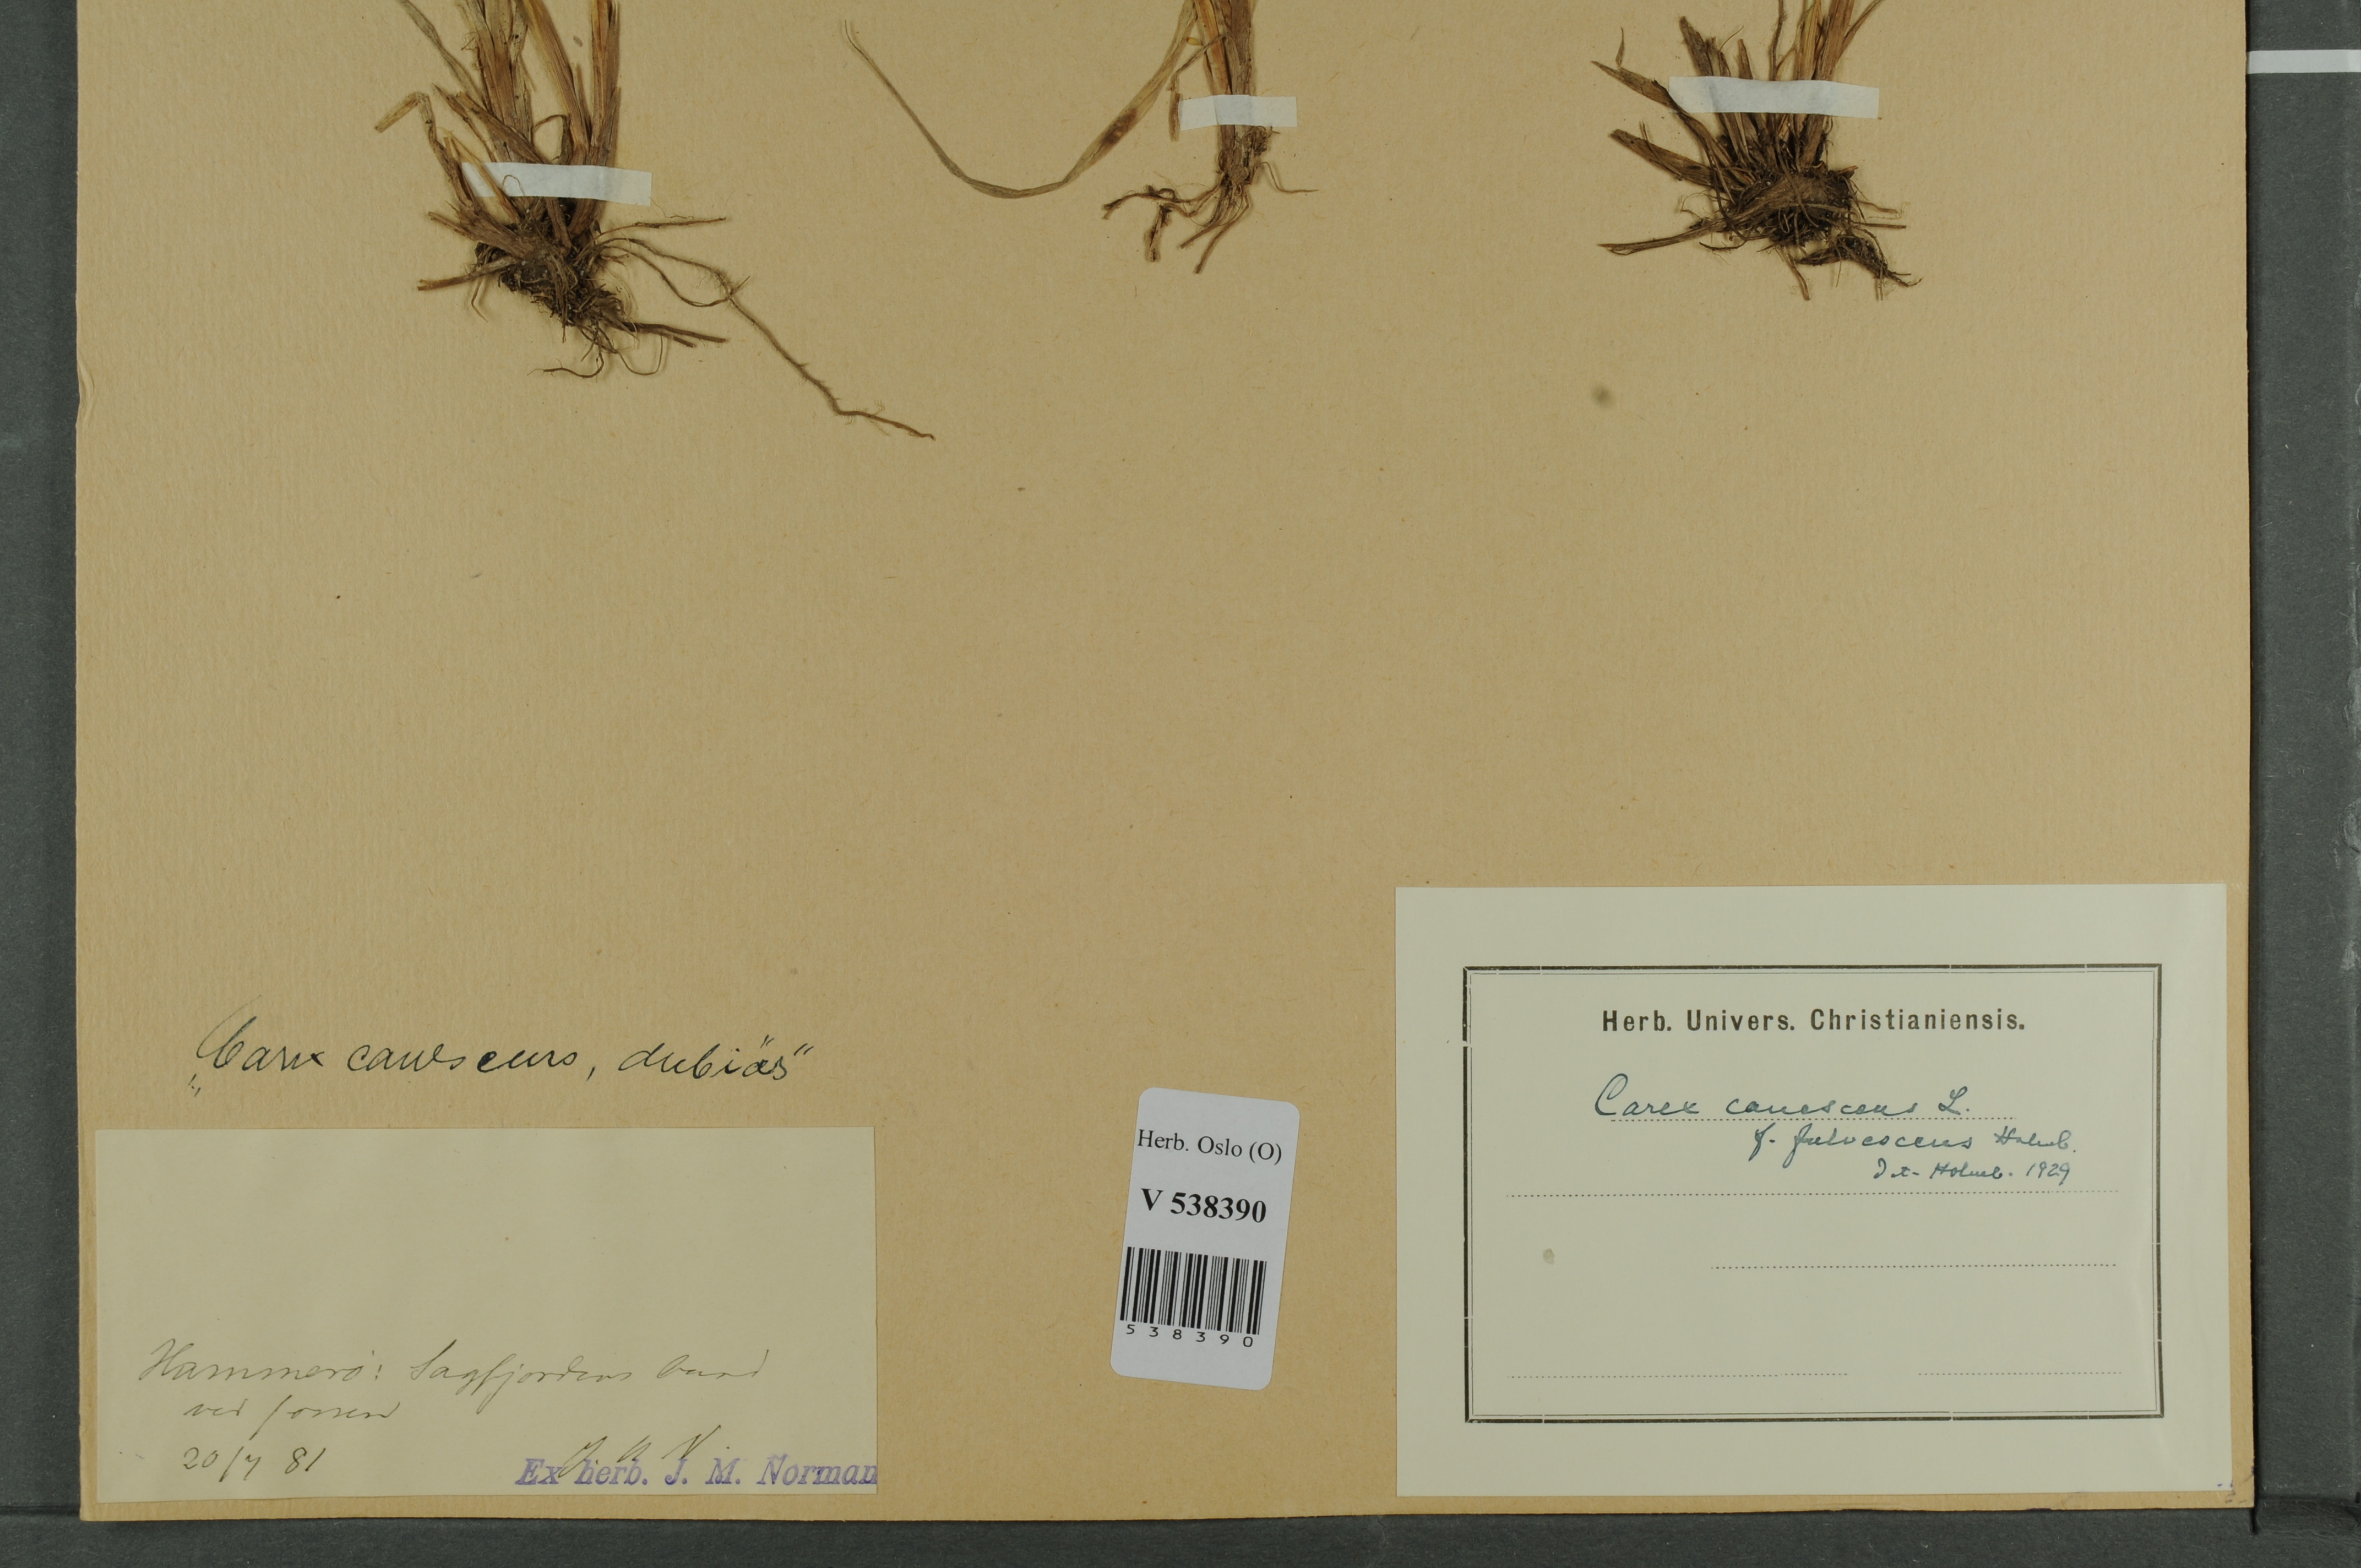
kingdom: Plantae
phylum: Tracheophyta
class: Liliopsida
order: Poales
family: Cyperaceae
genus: Carex
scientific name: Carex canescens
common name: White sedge
